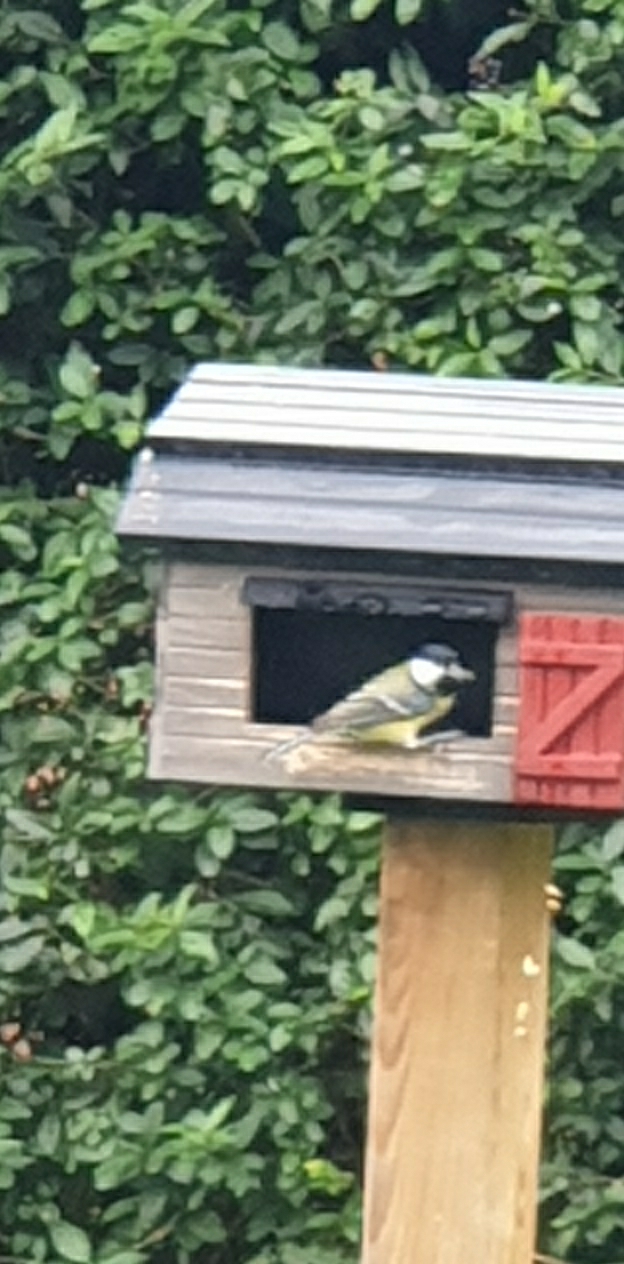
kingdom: Animalia
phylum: Chordata
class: Aves
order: Passeriformes
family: Paridae
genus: Parus
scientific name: Parus major
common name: Musvit
